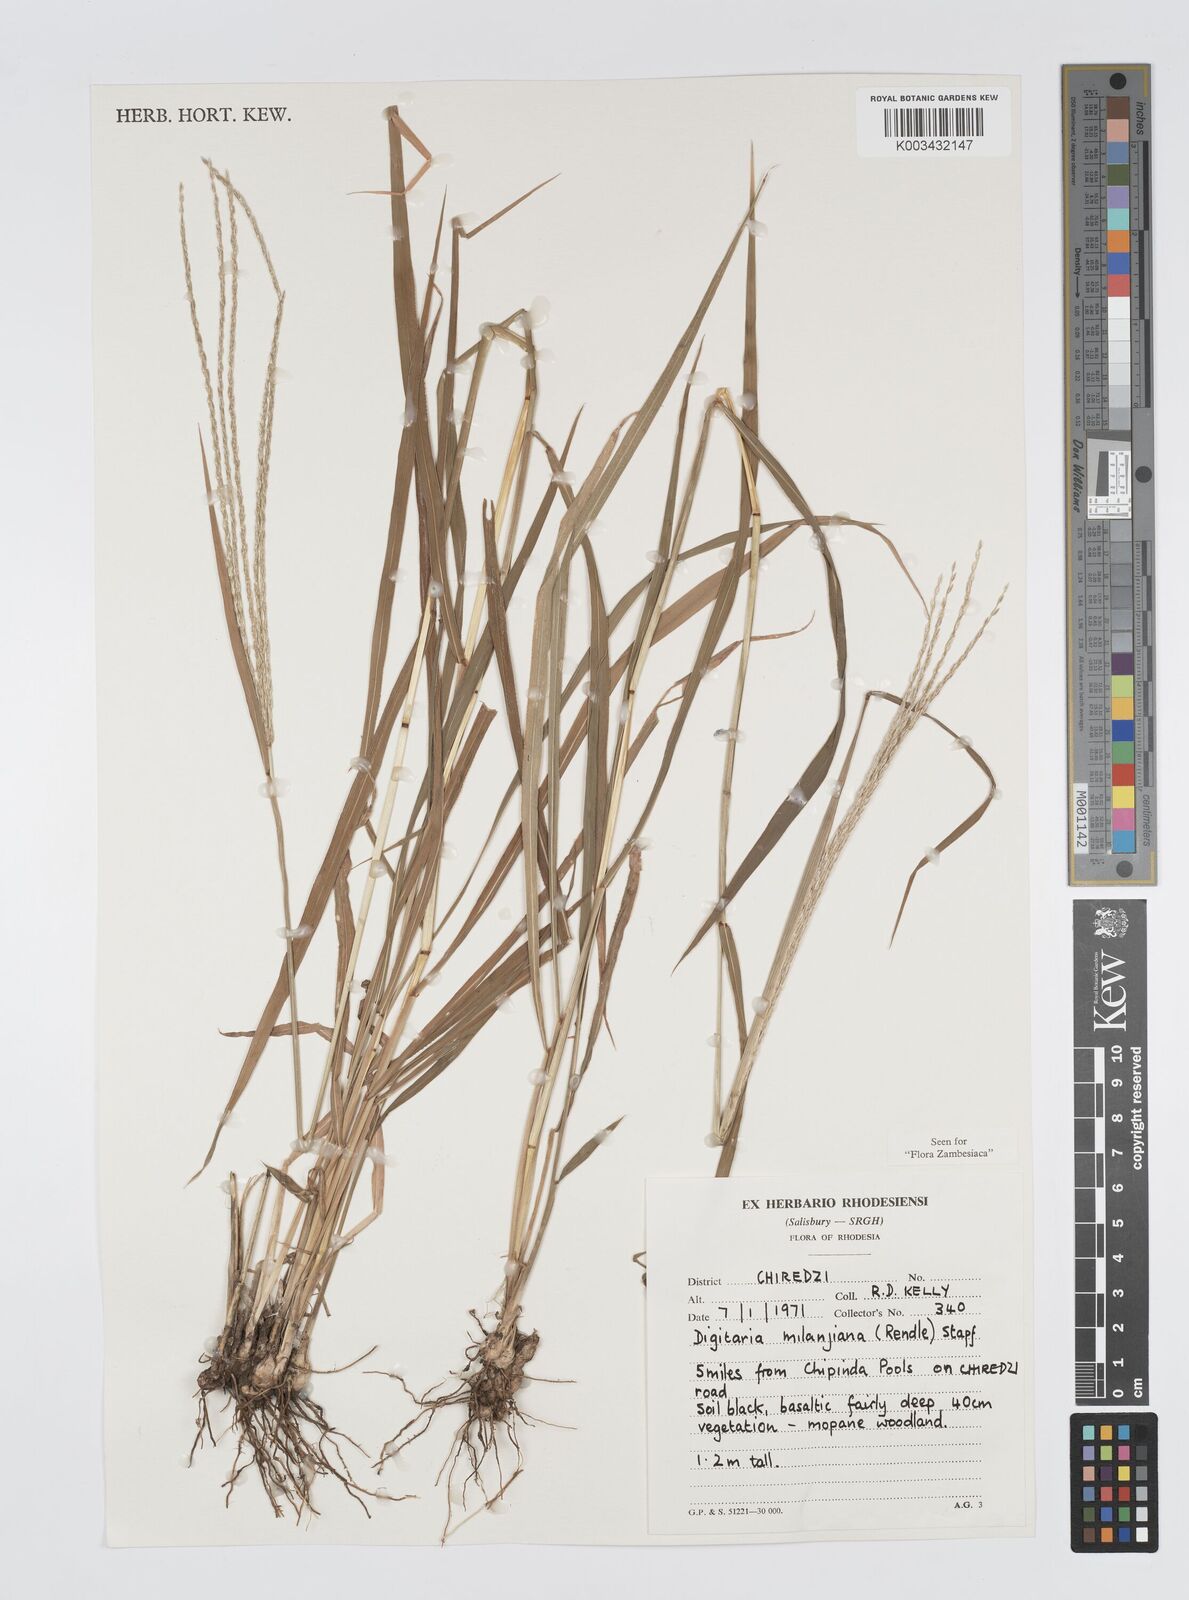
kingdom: Plantae
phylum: Tracheophyta
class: Liliopsida
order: Poales
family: Poaceae
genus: Digitaria
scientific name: Digitaria milanjiana
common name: Madagascar crabgrass
